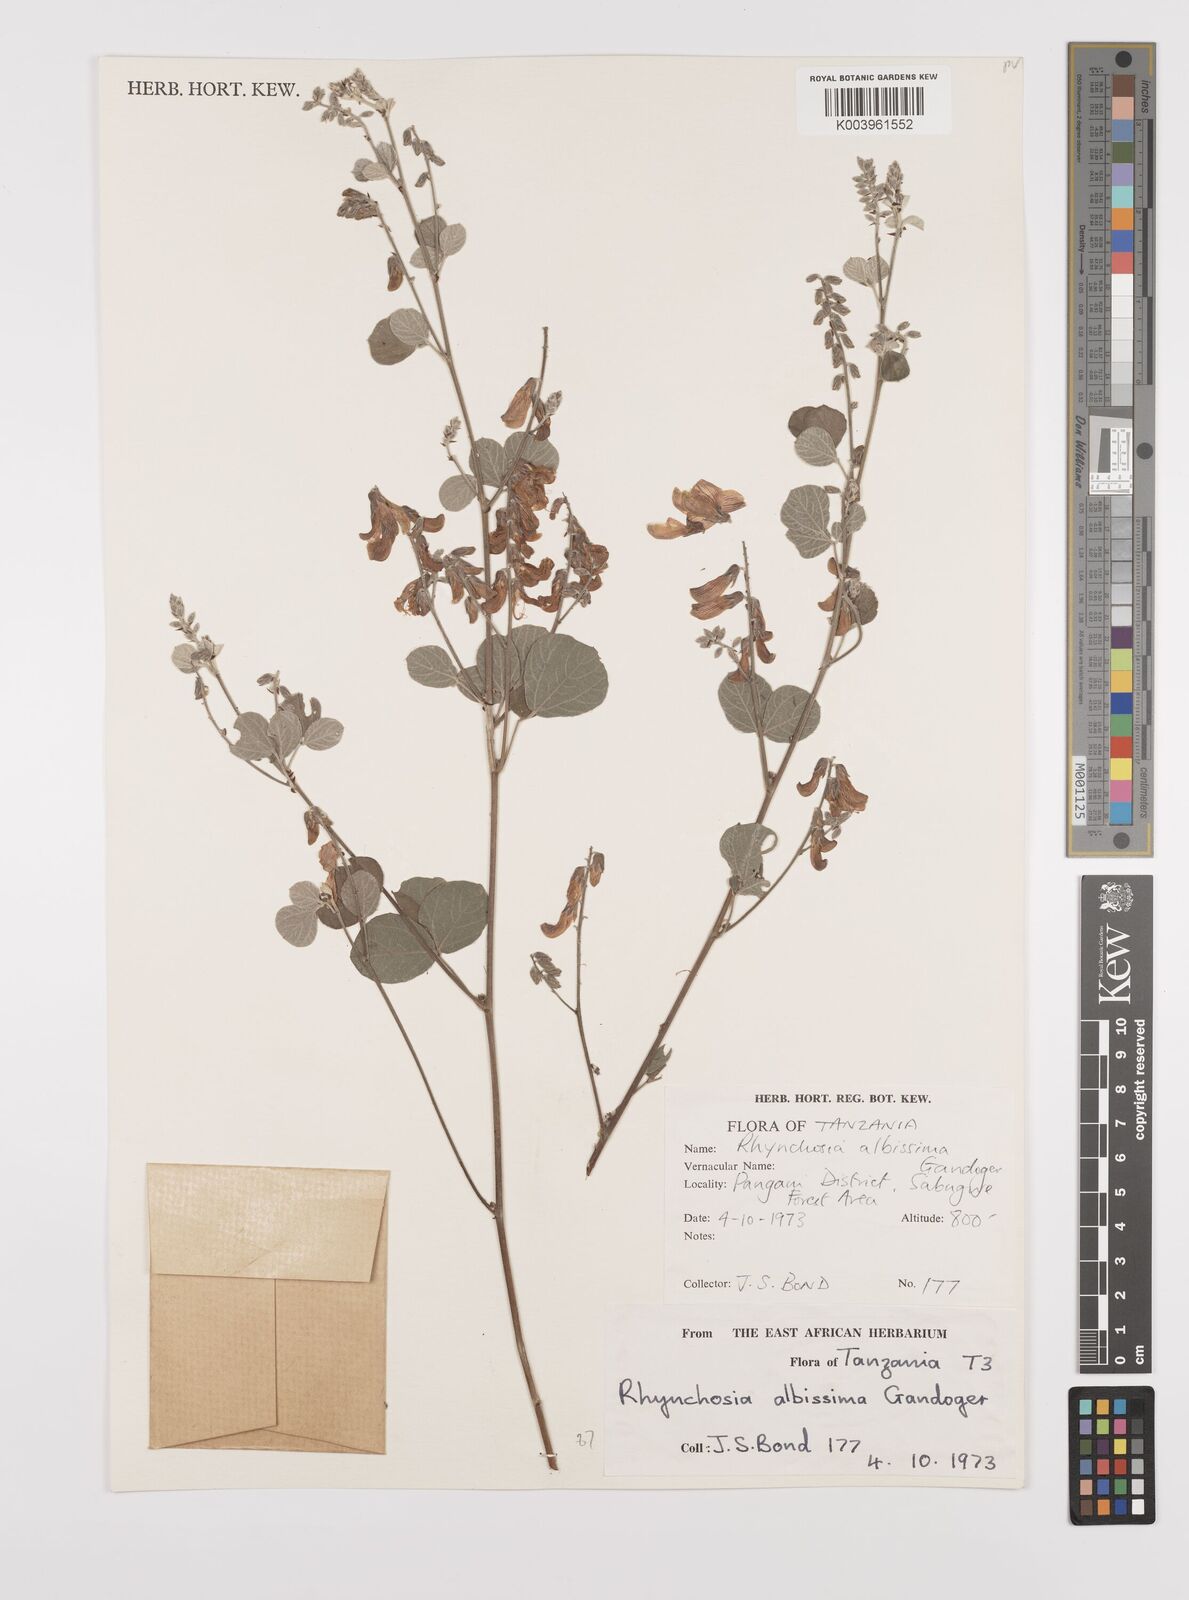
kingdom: Plantae
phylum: Tracheophyta
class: Magnoliopsida
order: Fabales
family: Fabaceae
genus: Rhynchosia
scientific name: Rhynchosia albissima
